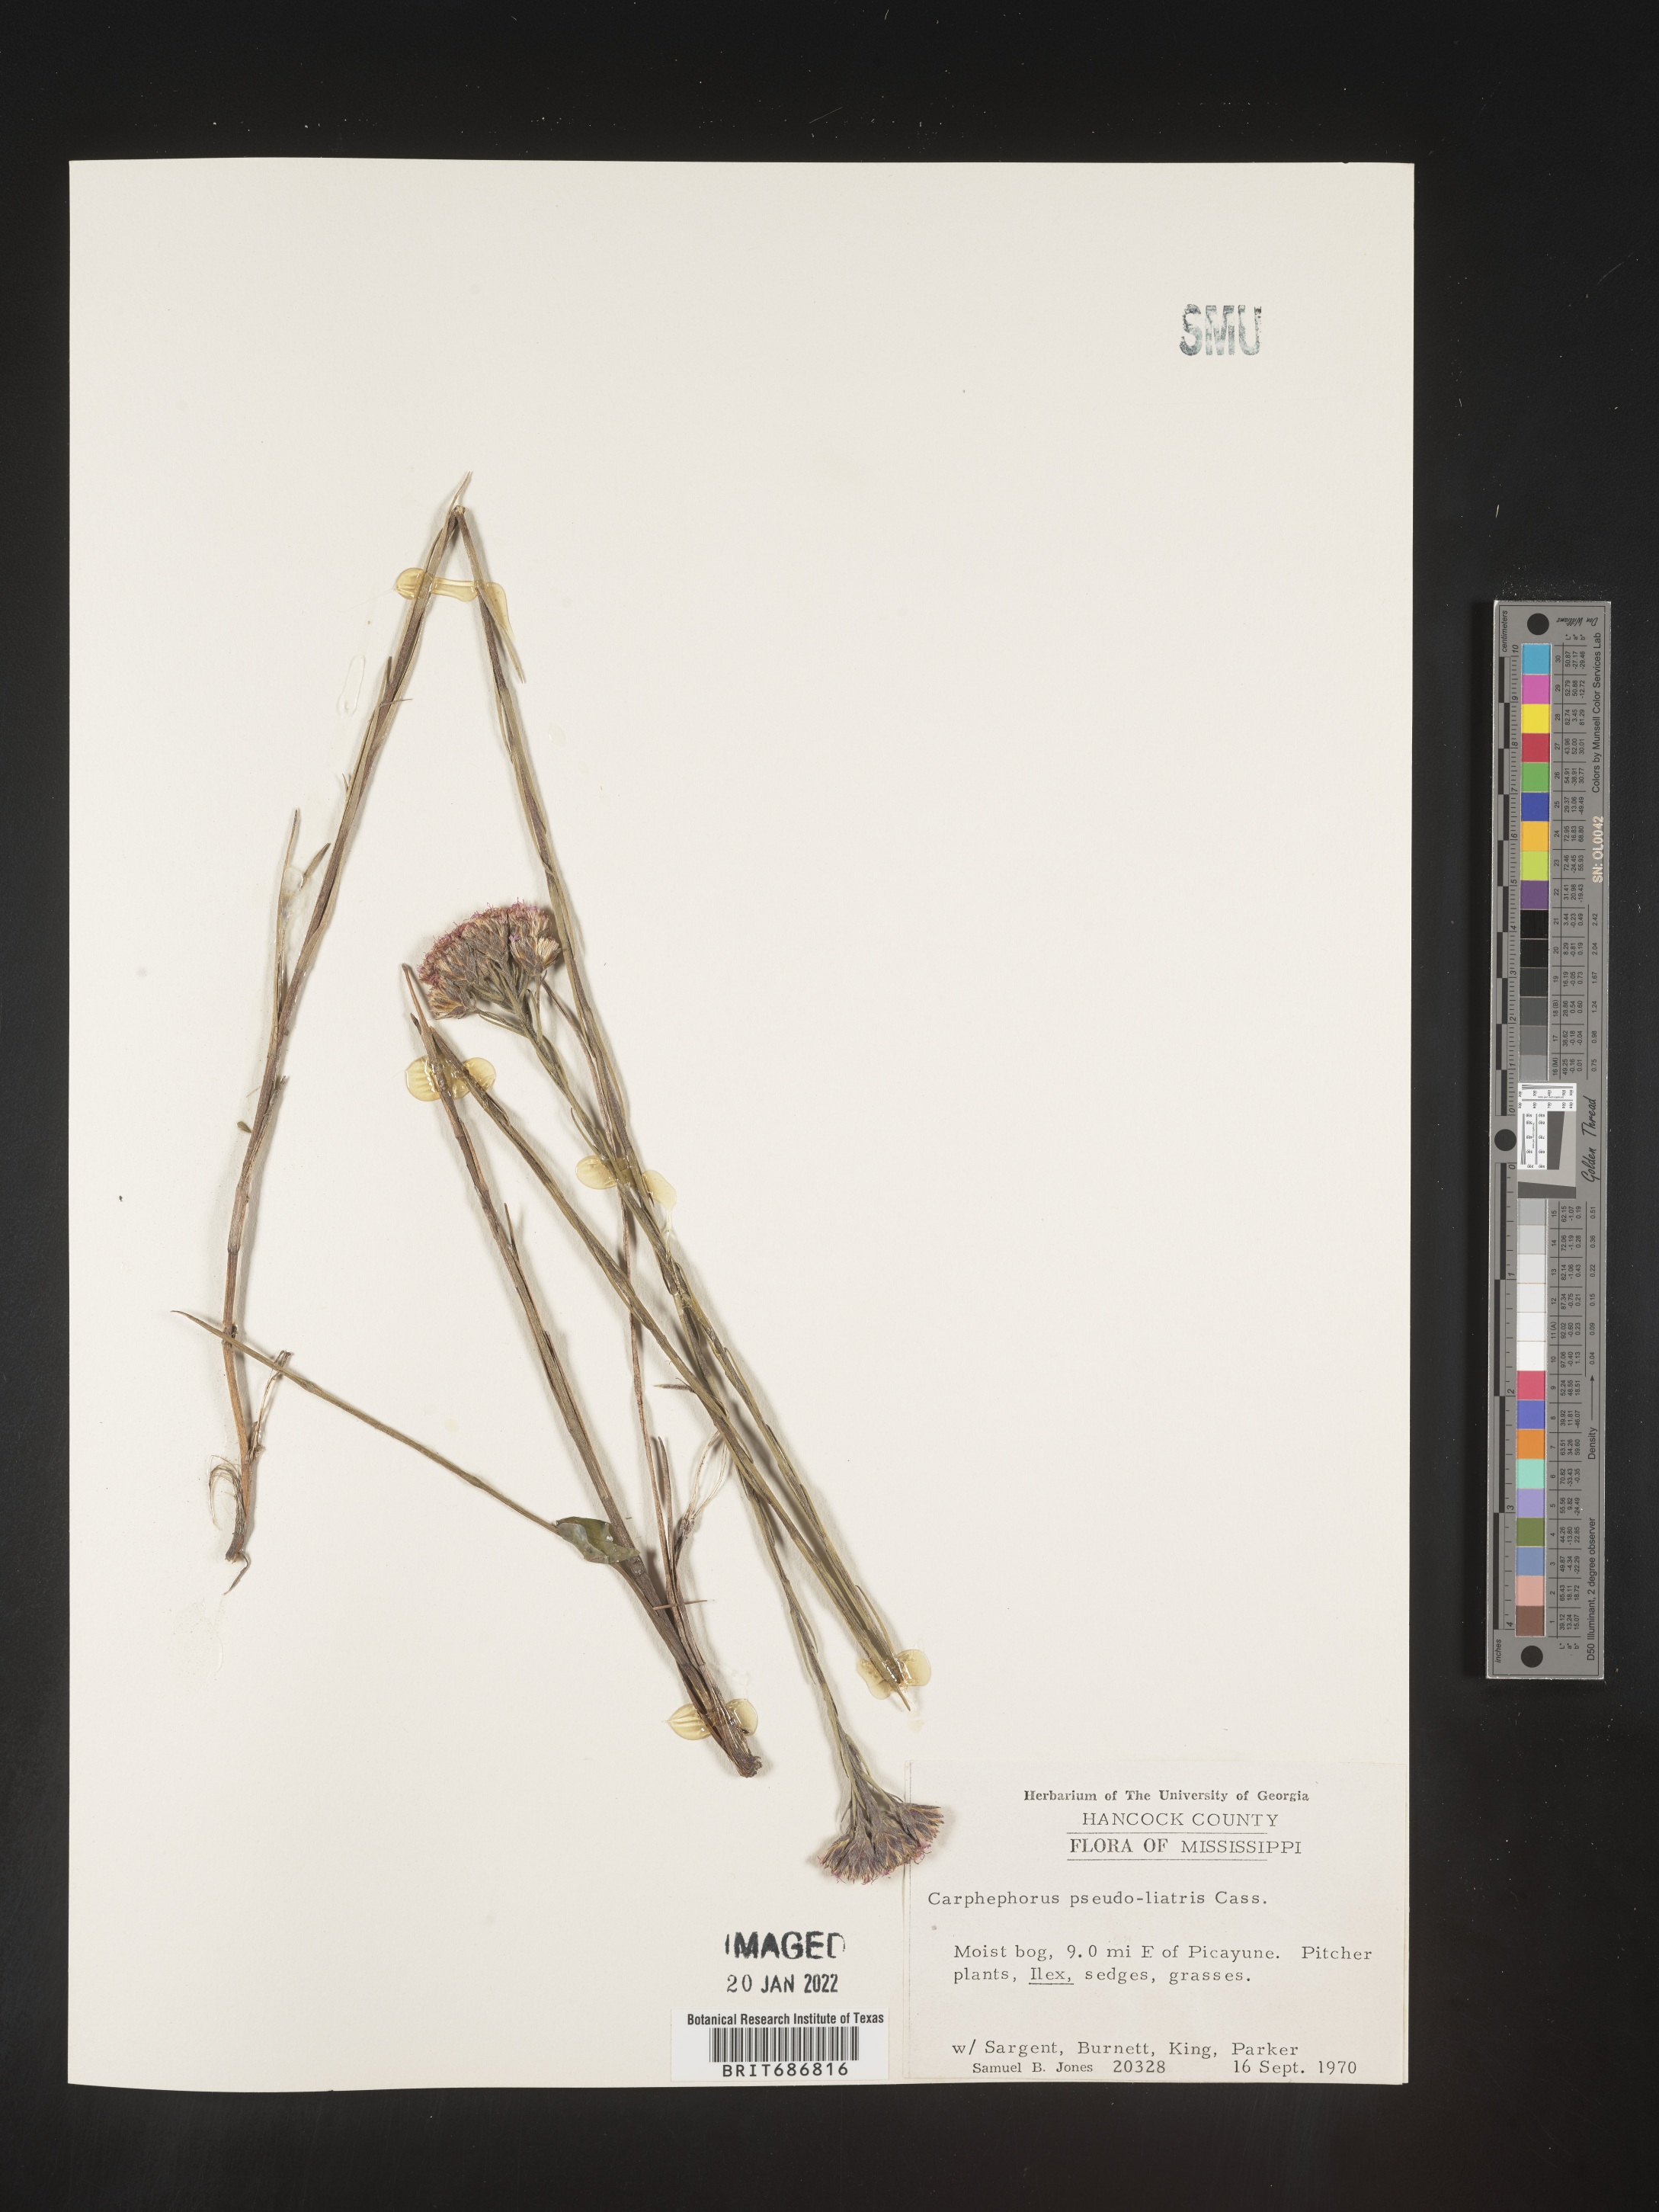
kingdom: Plantae
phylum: Tracheophyta
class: Magnoliopsida
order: Asterales
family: Asteraceae
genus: Carphephorus
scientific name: Carphephorus pseudoliatris
